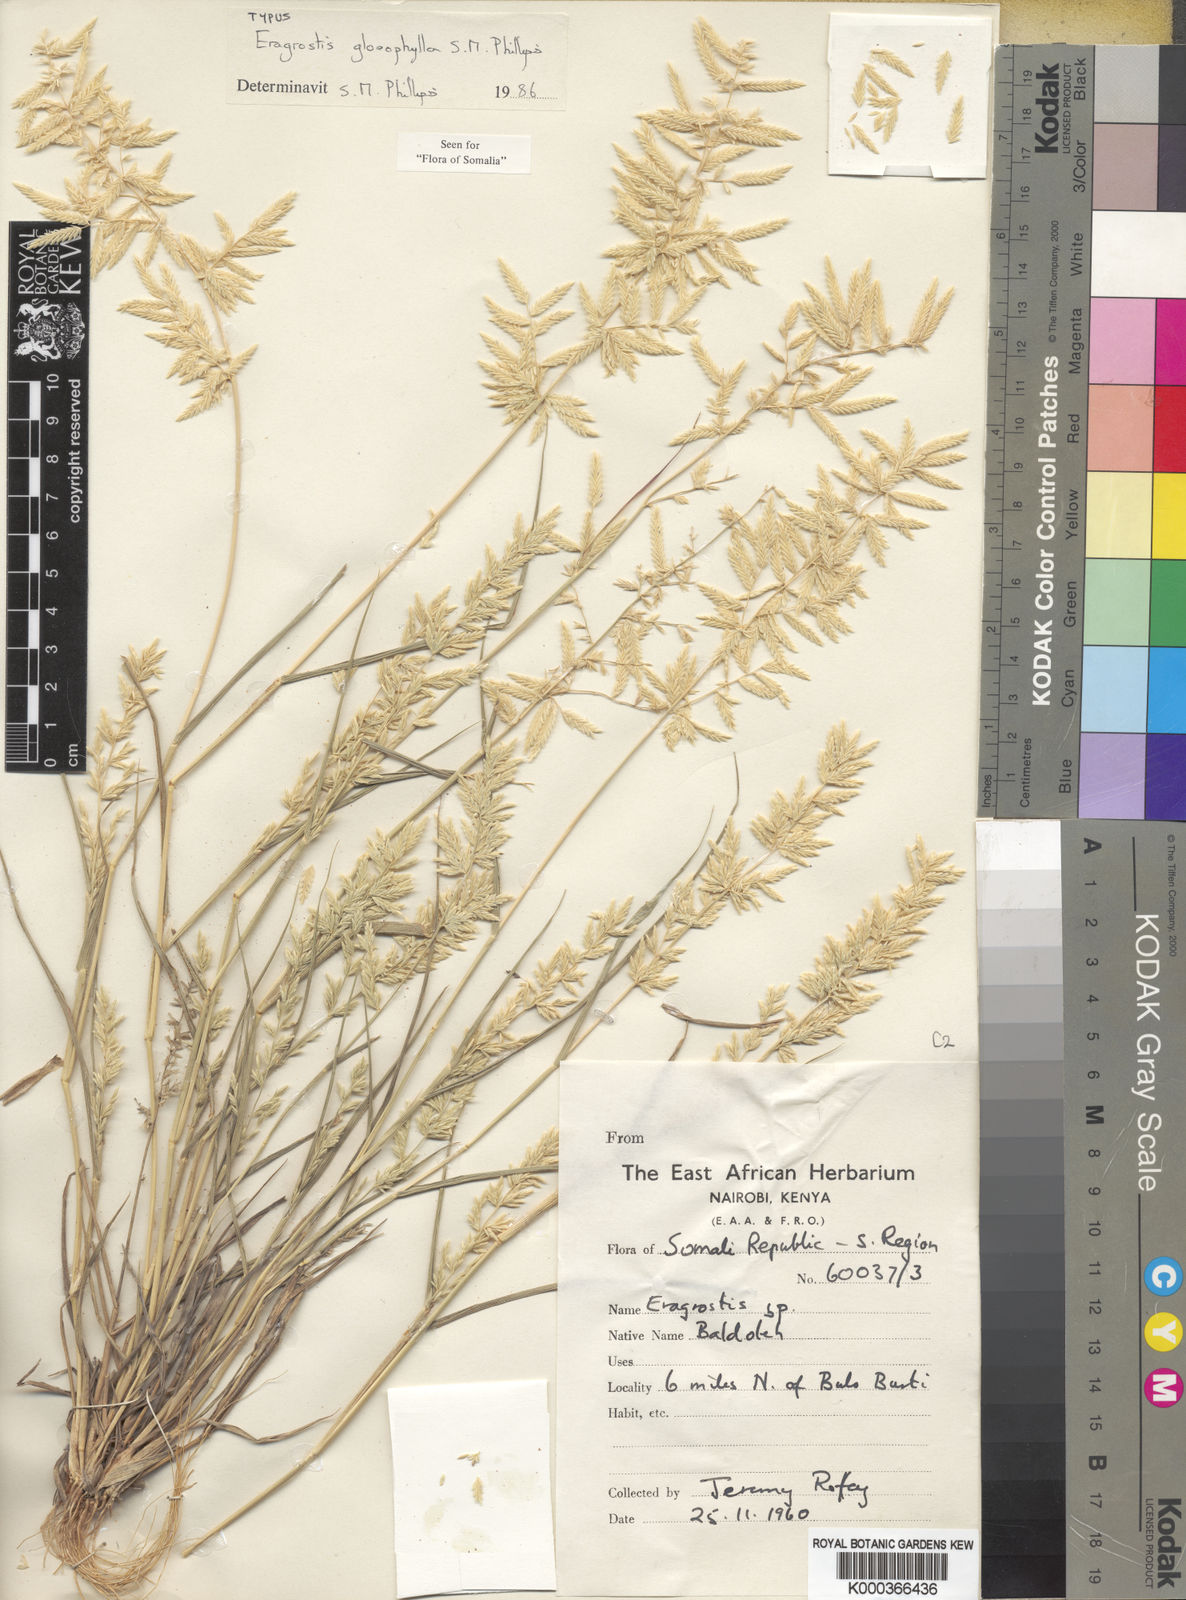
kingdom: Plantae
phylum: Tracheophyta
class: Liliopsida
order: Poales
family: Poaceae
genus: Eragrostis
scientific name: Eragrostis gloeophylla
